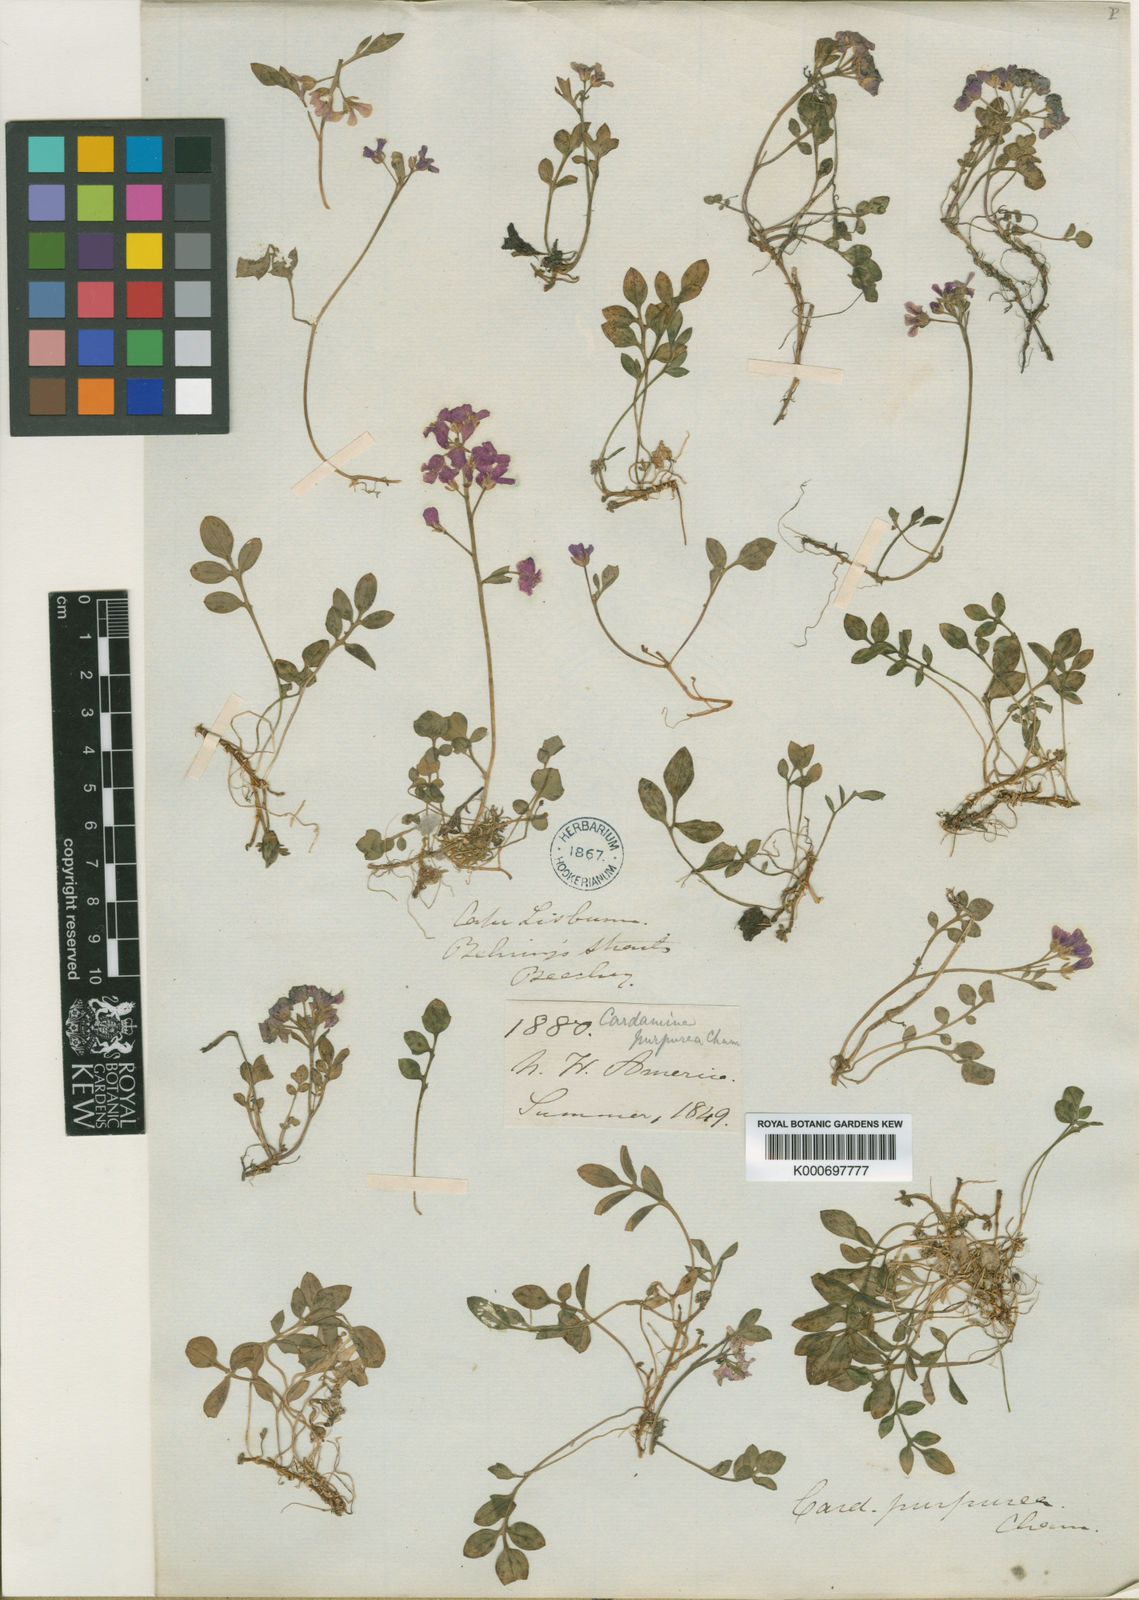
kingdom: Plantae
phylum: Tracheophyta
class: Magnoliopsida
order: Brassicales
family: Brassicaceae
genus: Cardamine
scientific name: Cardamine purpurea
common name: Purple bittercress
